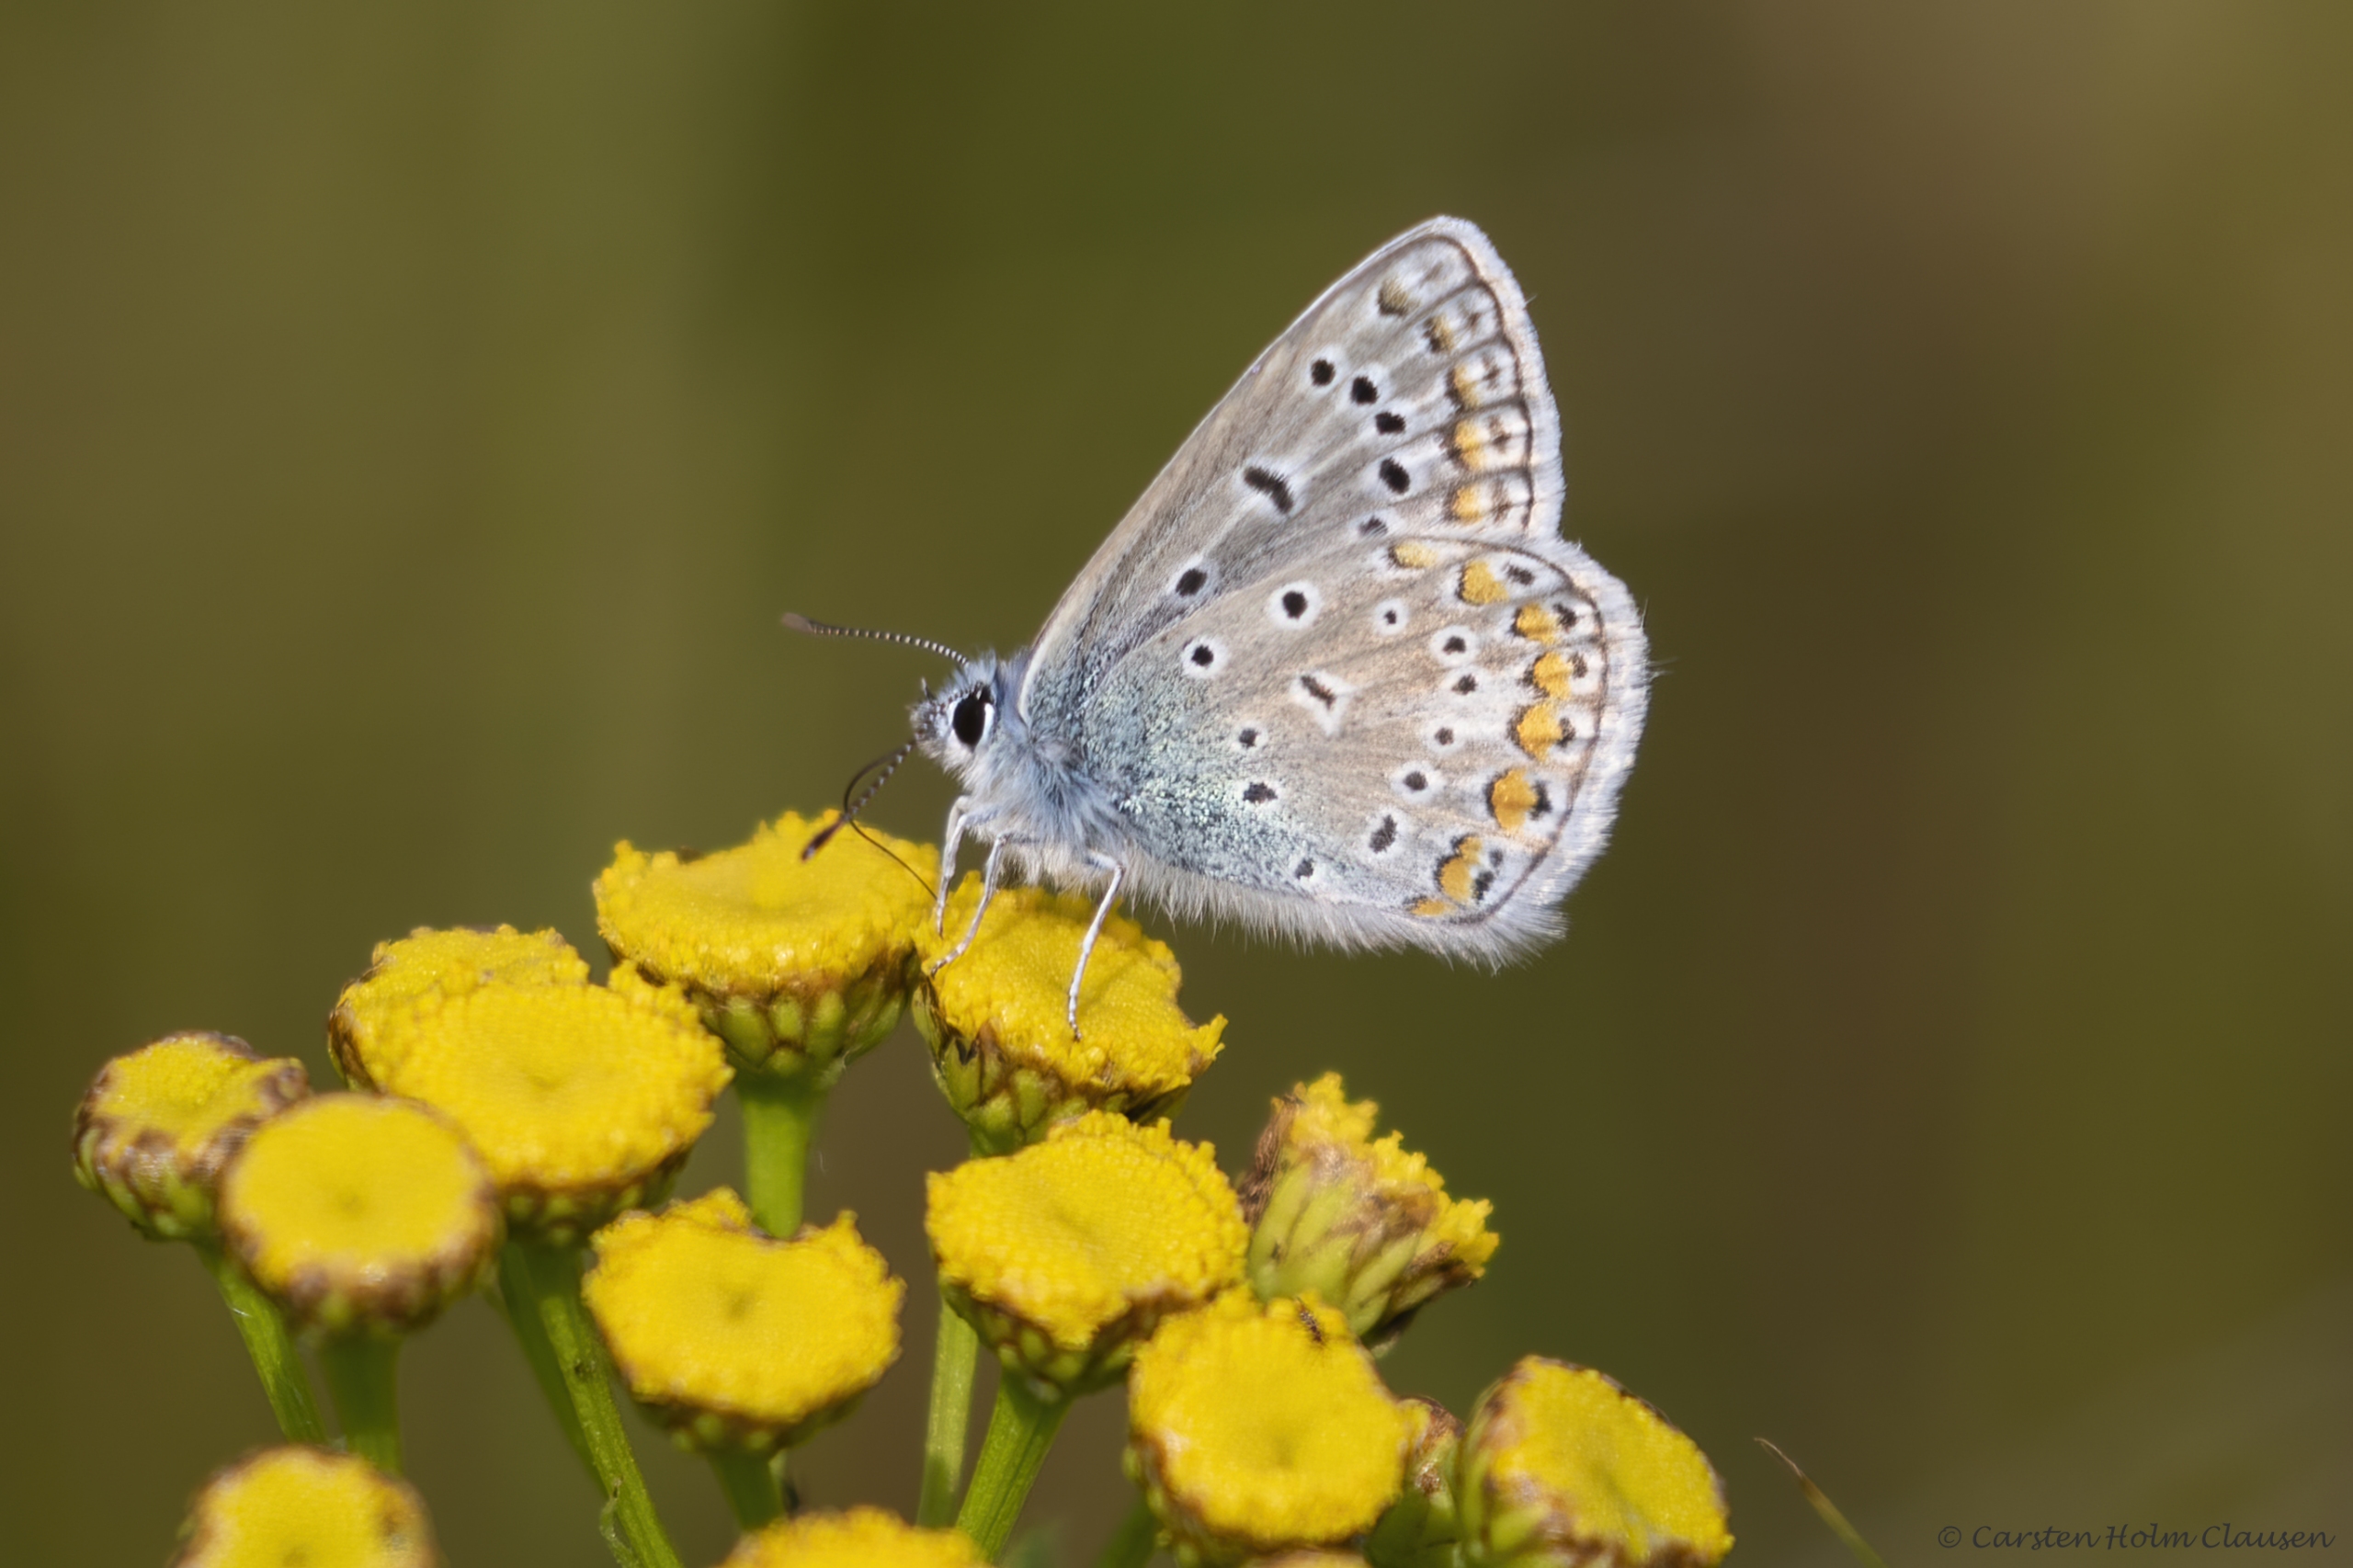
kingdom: Animalia
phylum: Arthropoda
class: Insecta
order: Lepidoptera
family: Lycaenidae
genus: Polyommatus
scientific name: Polyommatus icarus
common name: Almindelig blåfugl
